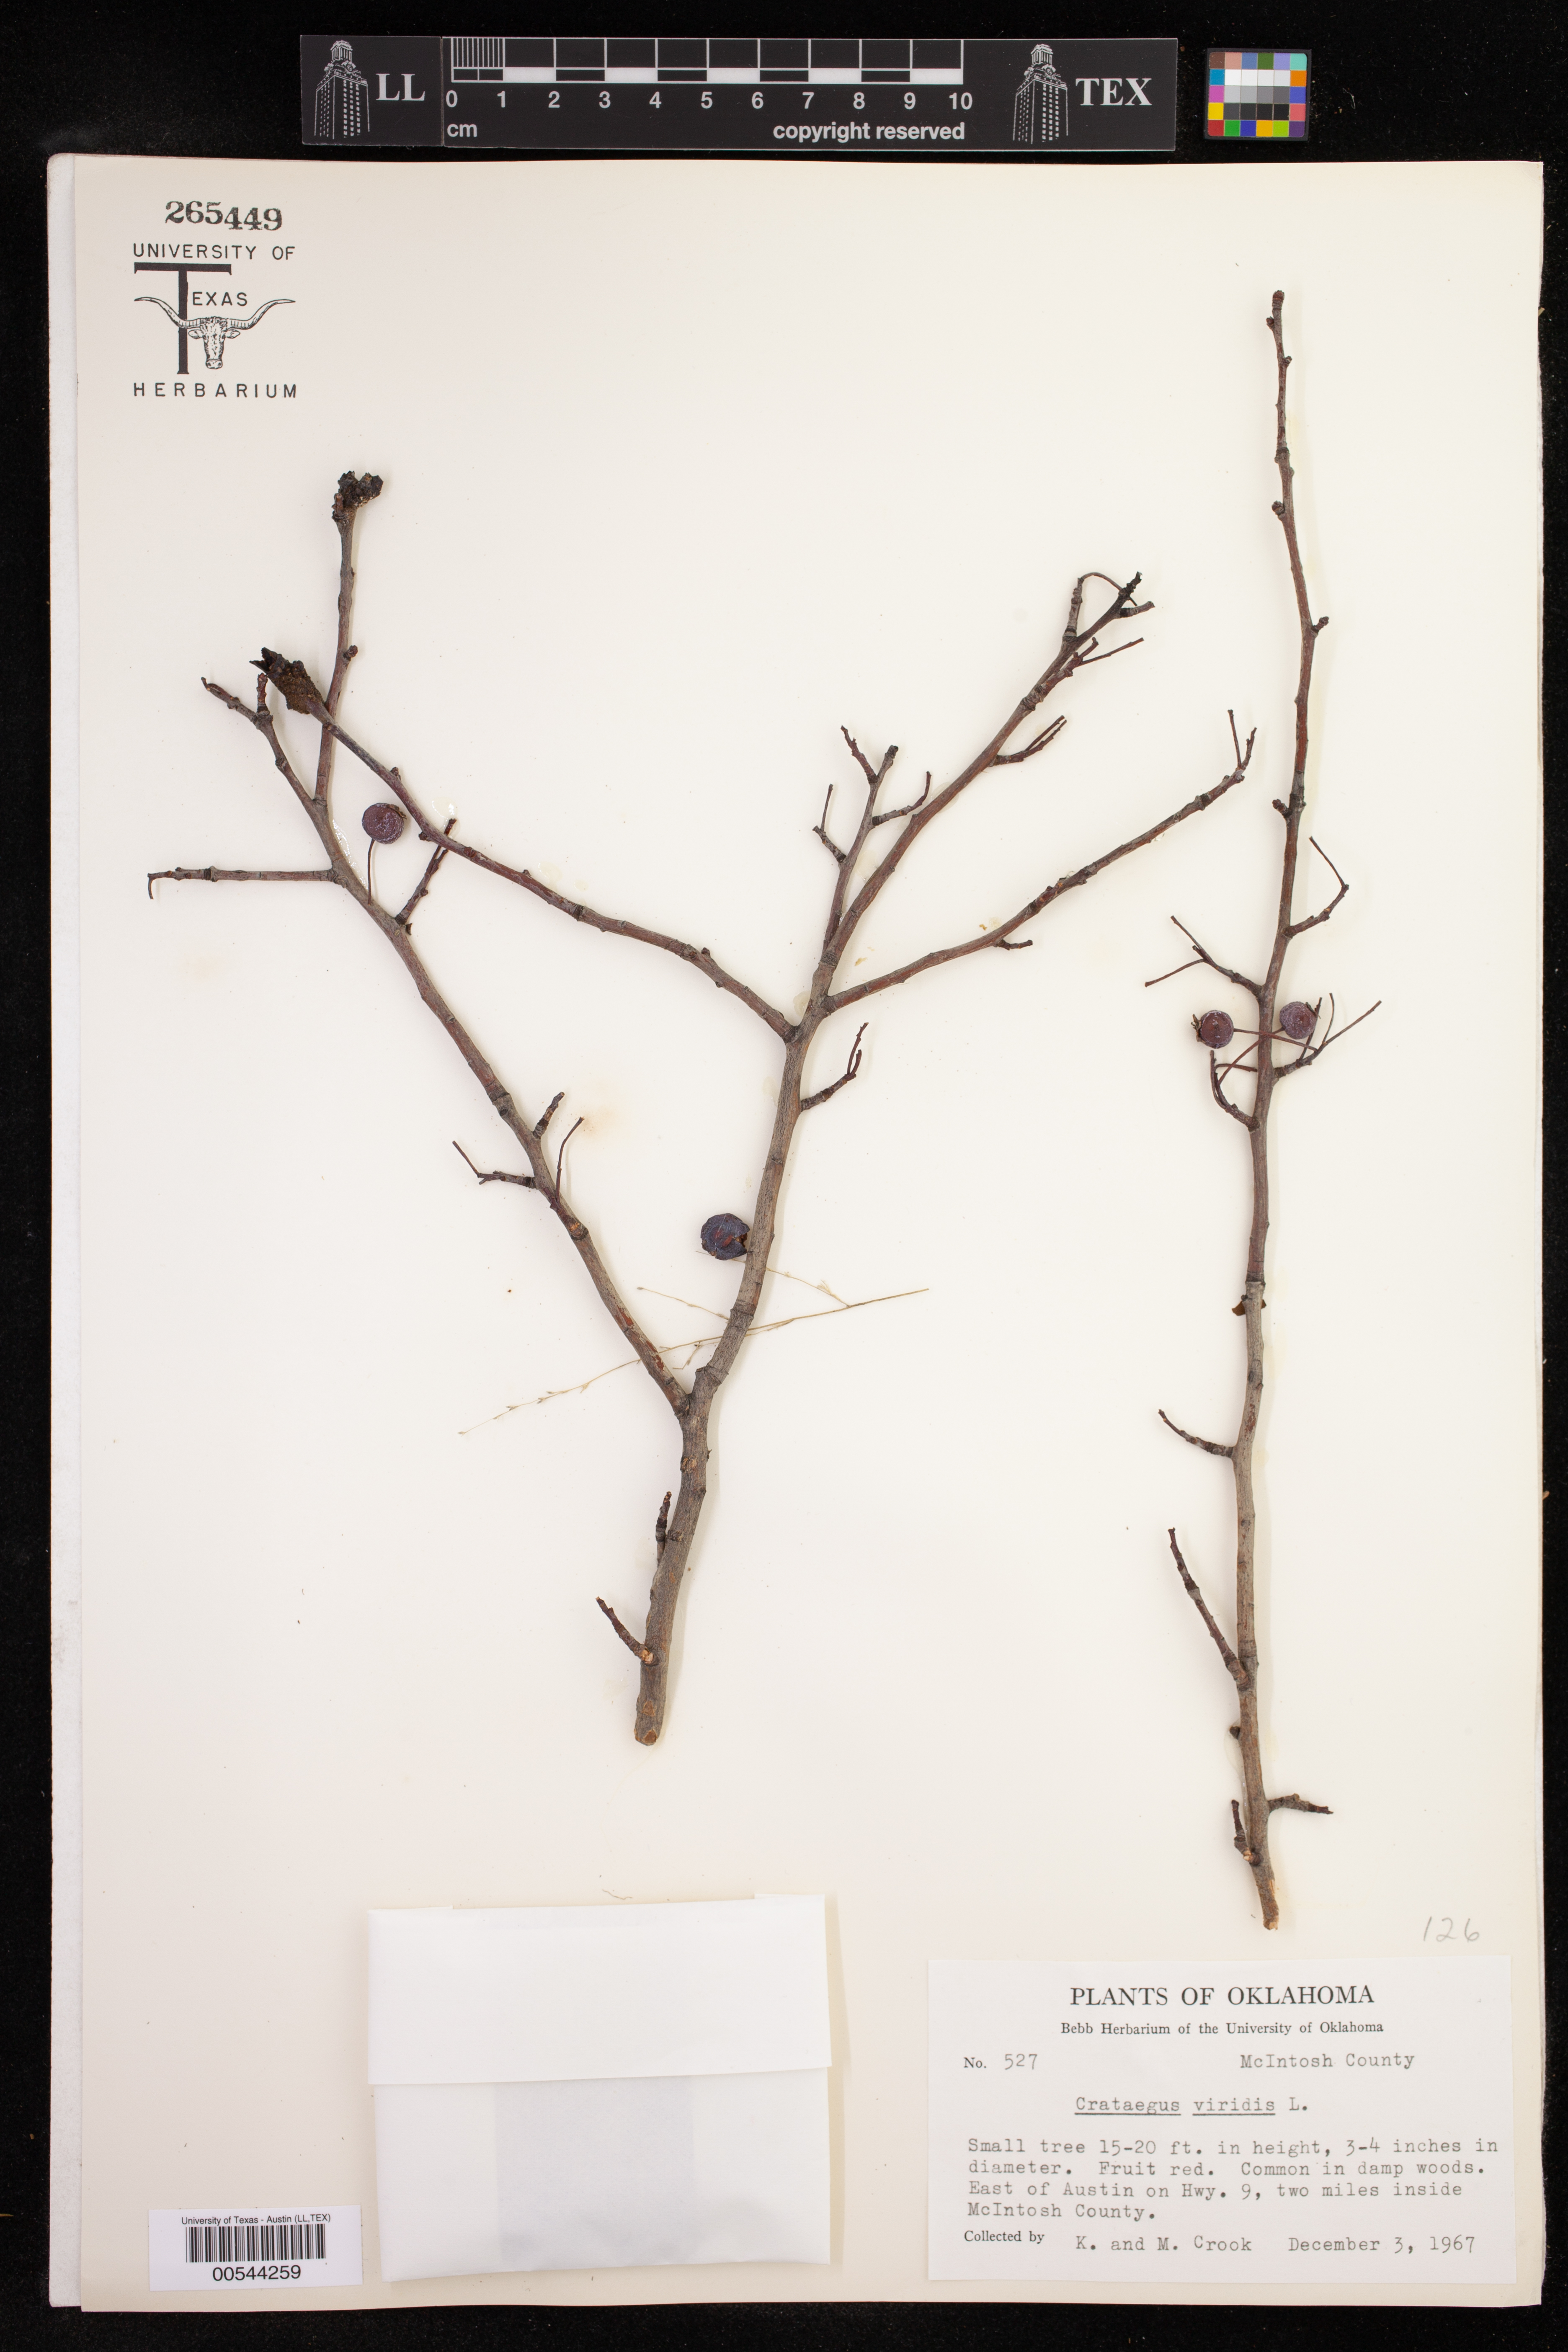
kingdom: Plantae
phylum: Tracheophyta
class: Magnoliopsida
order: Rosales
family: Rosaceae
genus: Crataegus
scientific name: Crataegus viridis
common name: Southernthorn
